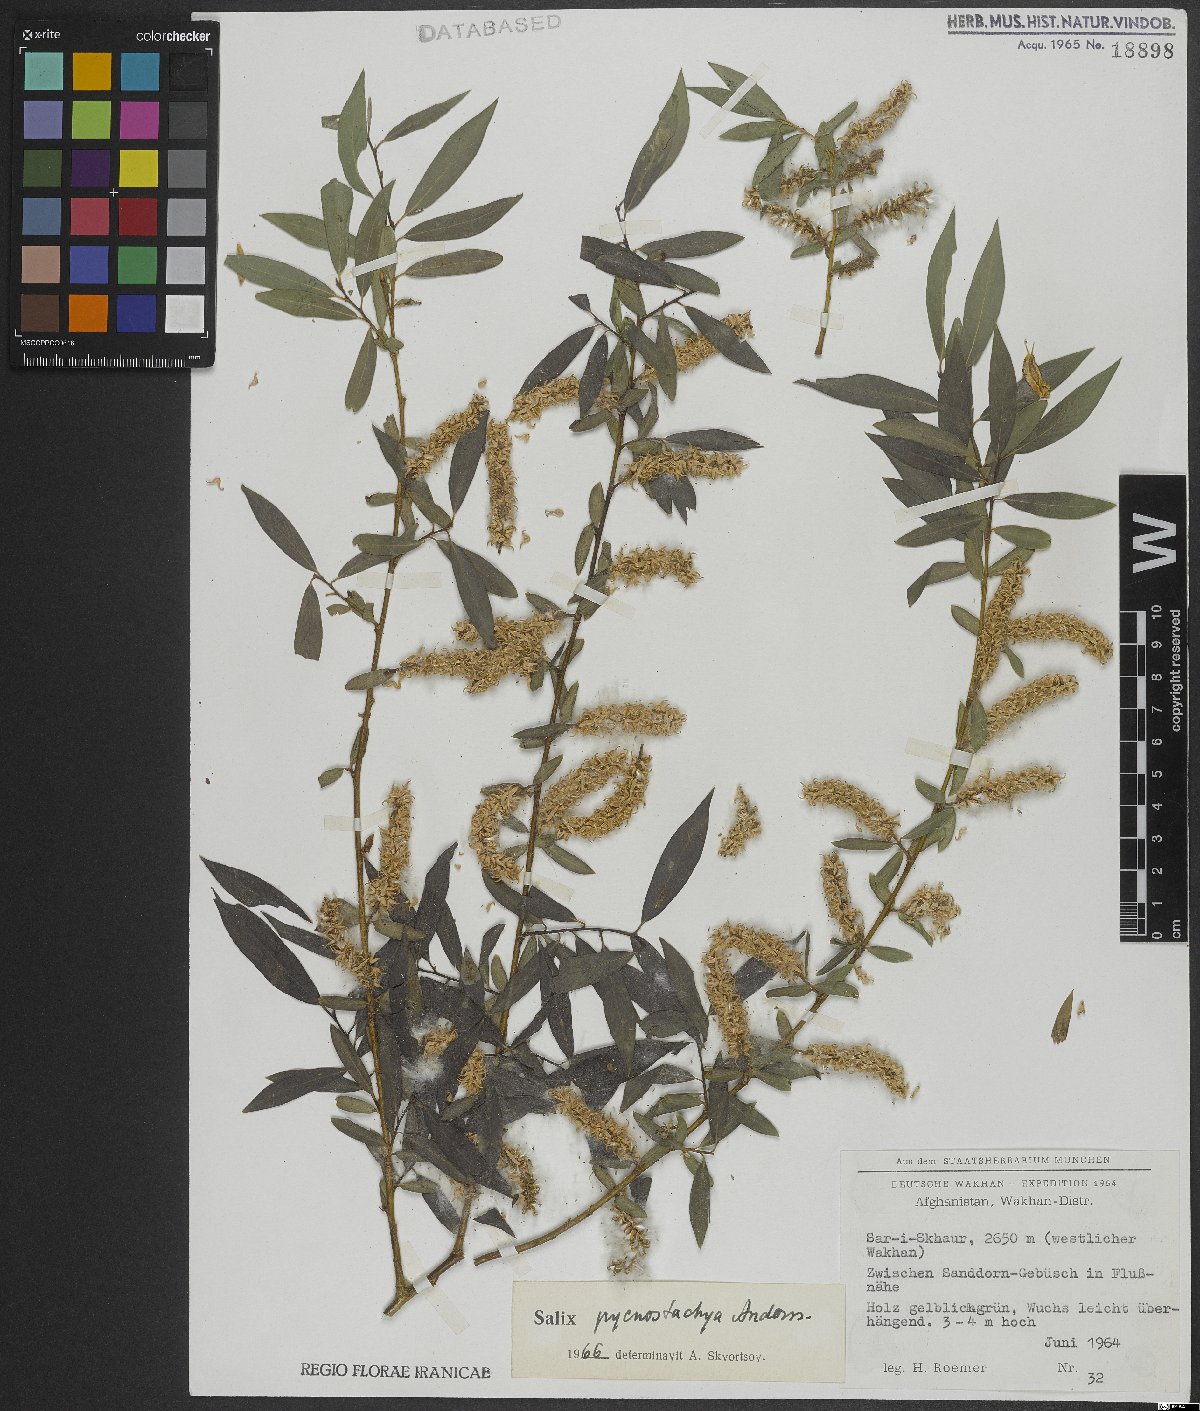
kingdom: Plantae
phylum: Tracheophyta
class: Magnoliopsida
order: Malpighiales
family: Salicaceae
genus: Salix
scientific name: Salix pycnostachya
